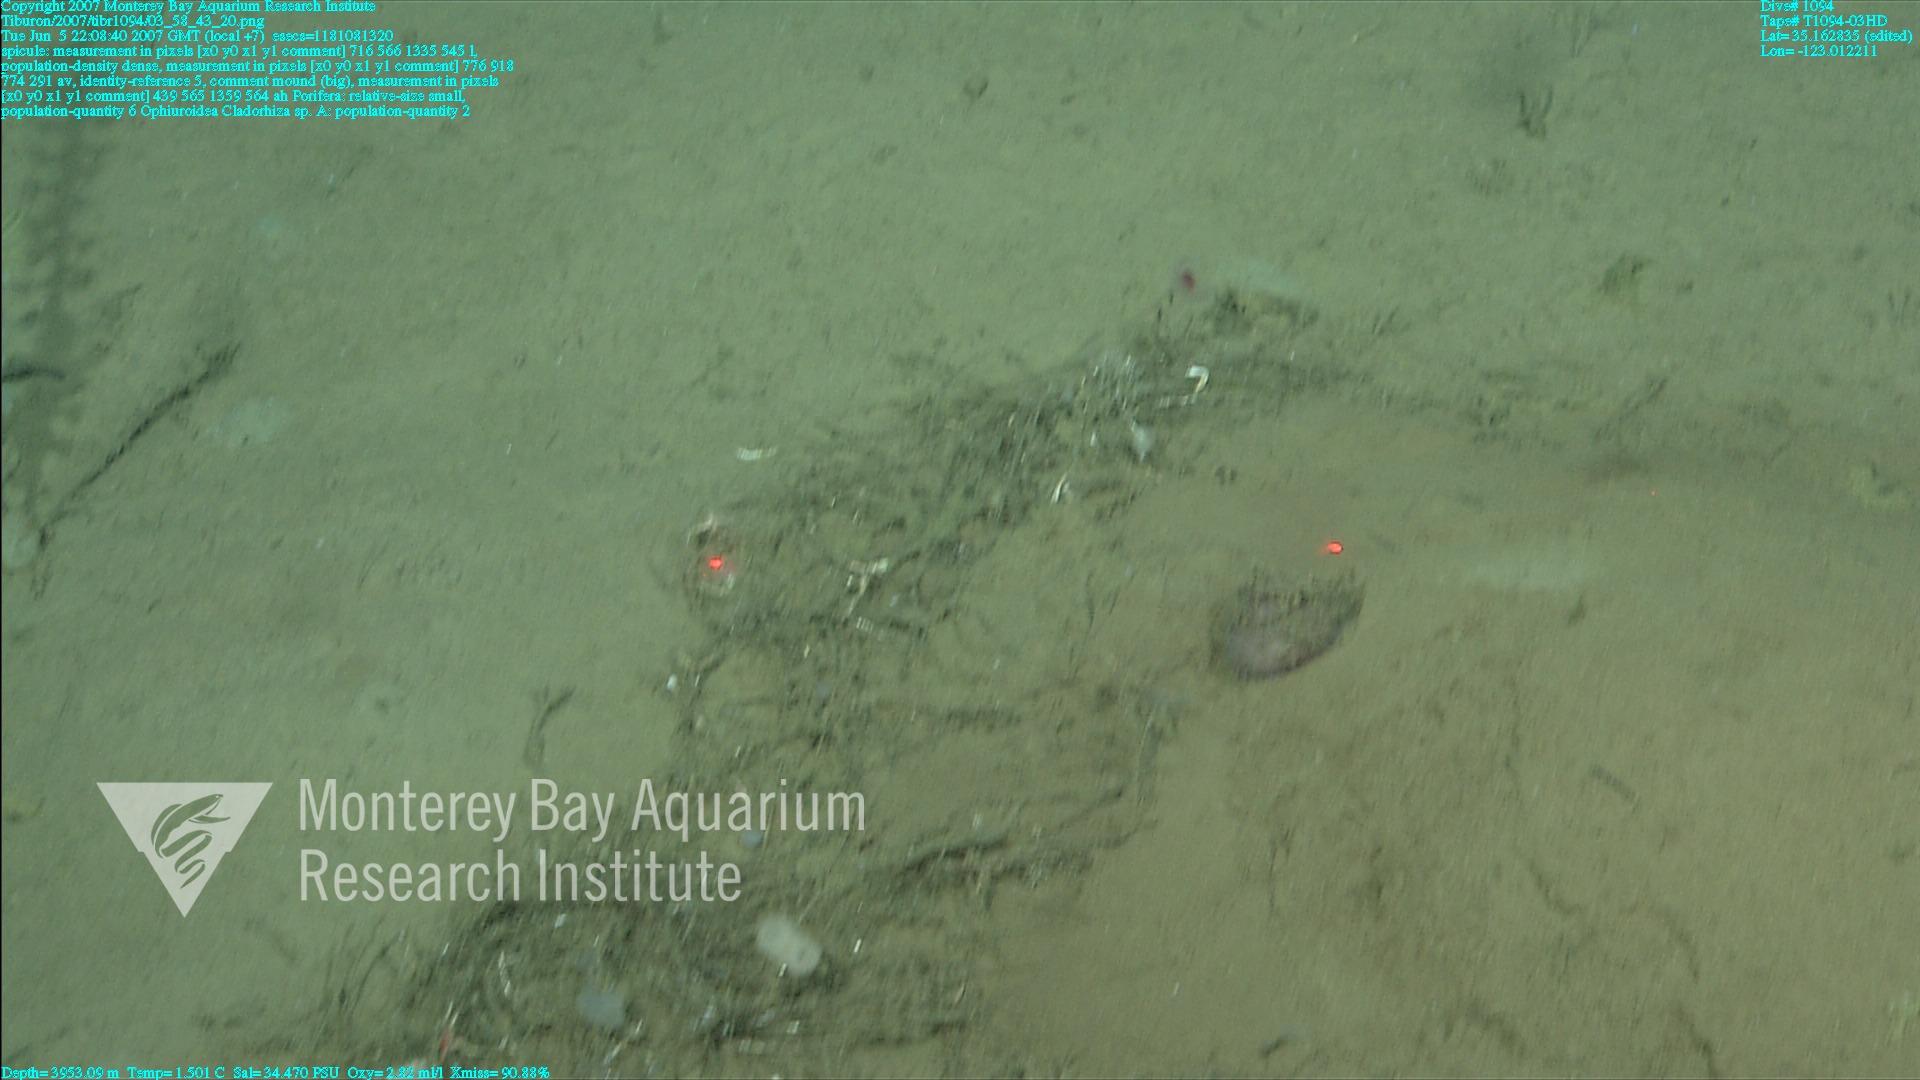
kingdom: Animalia
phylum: Porifera
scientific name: Porifera
